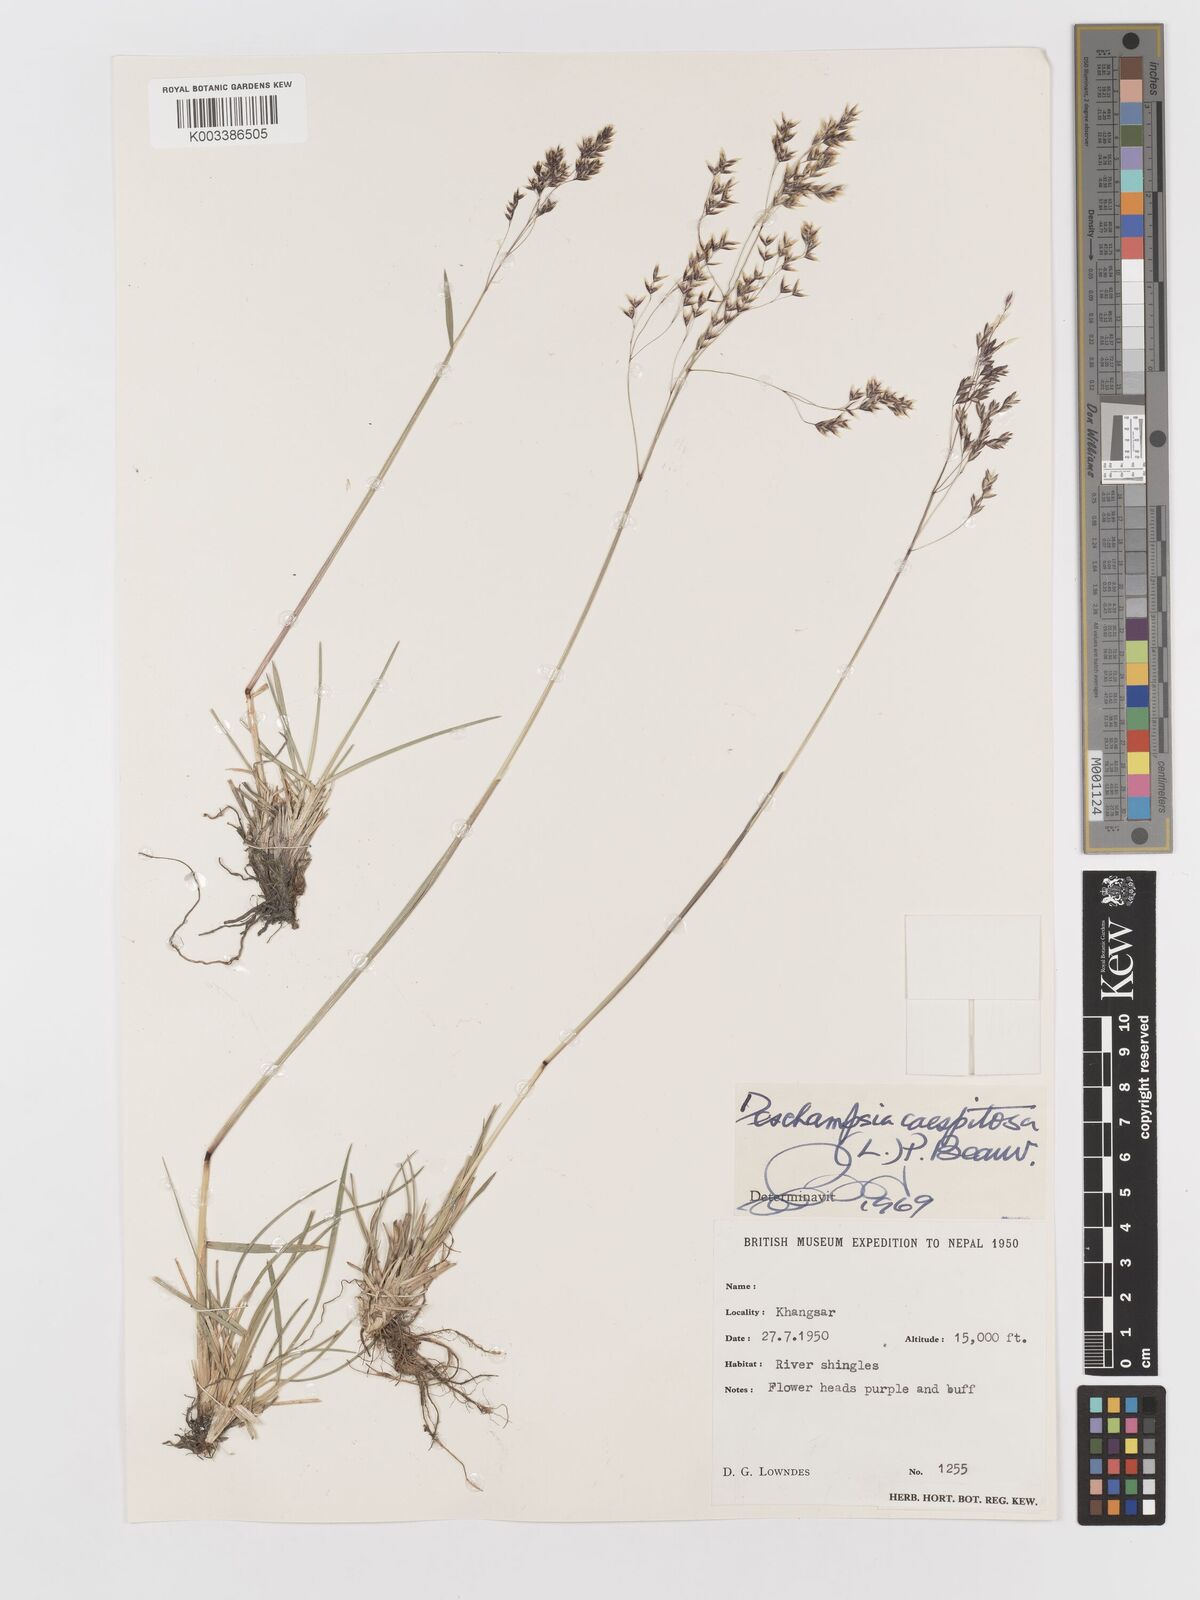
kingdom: Plantae
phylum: Tracheophyta
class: Liliopsida
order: Poales
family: Poaceae
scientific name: Poaceae
